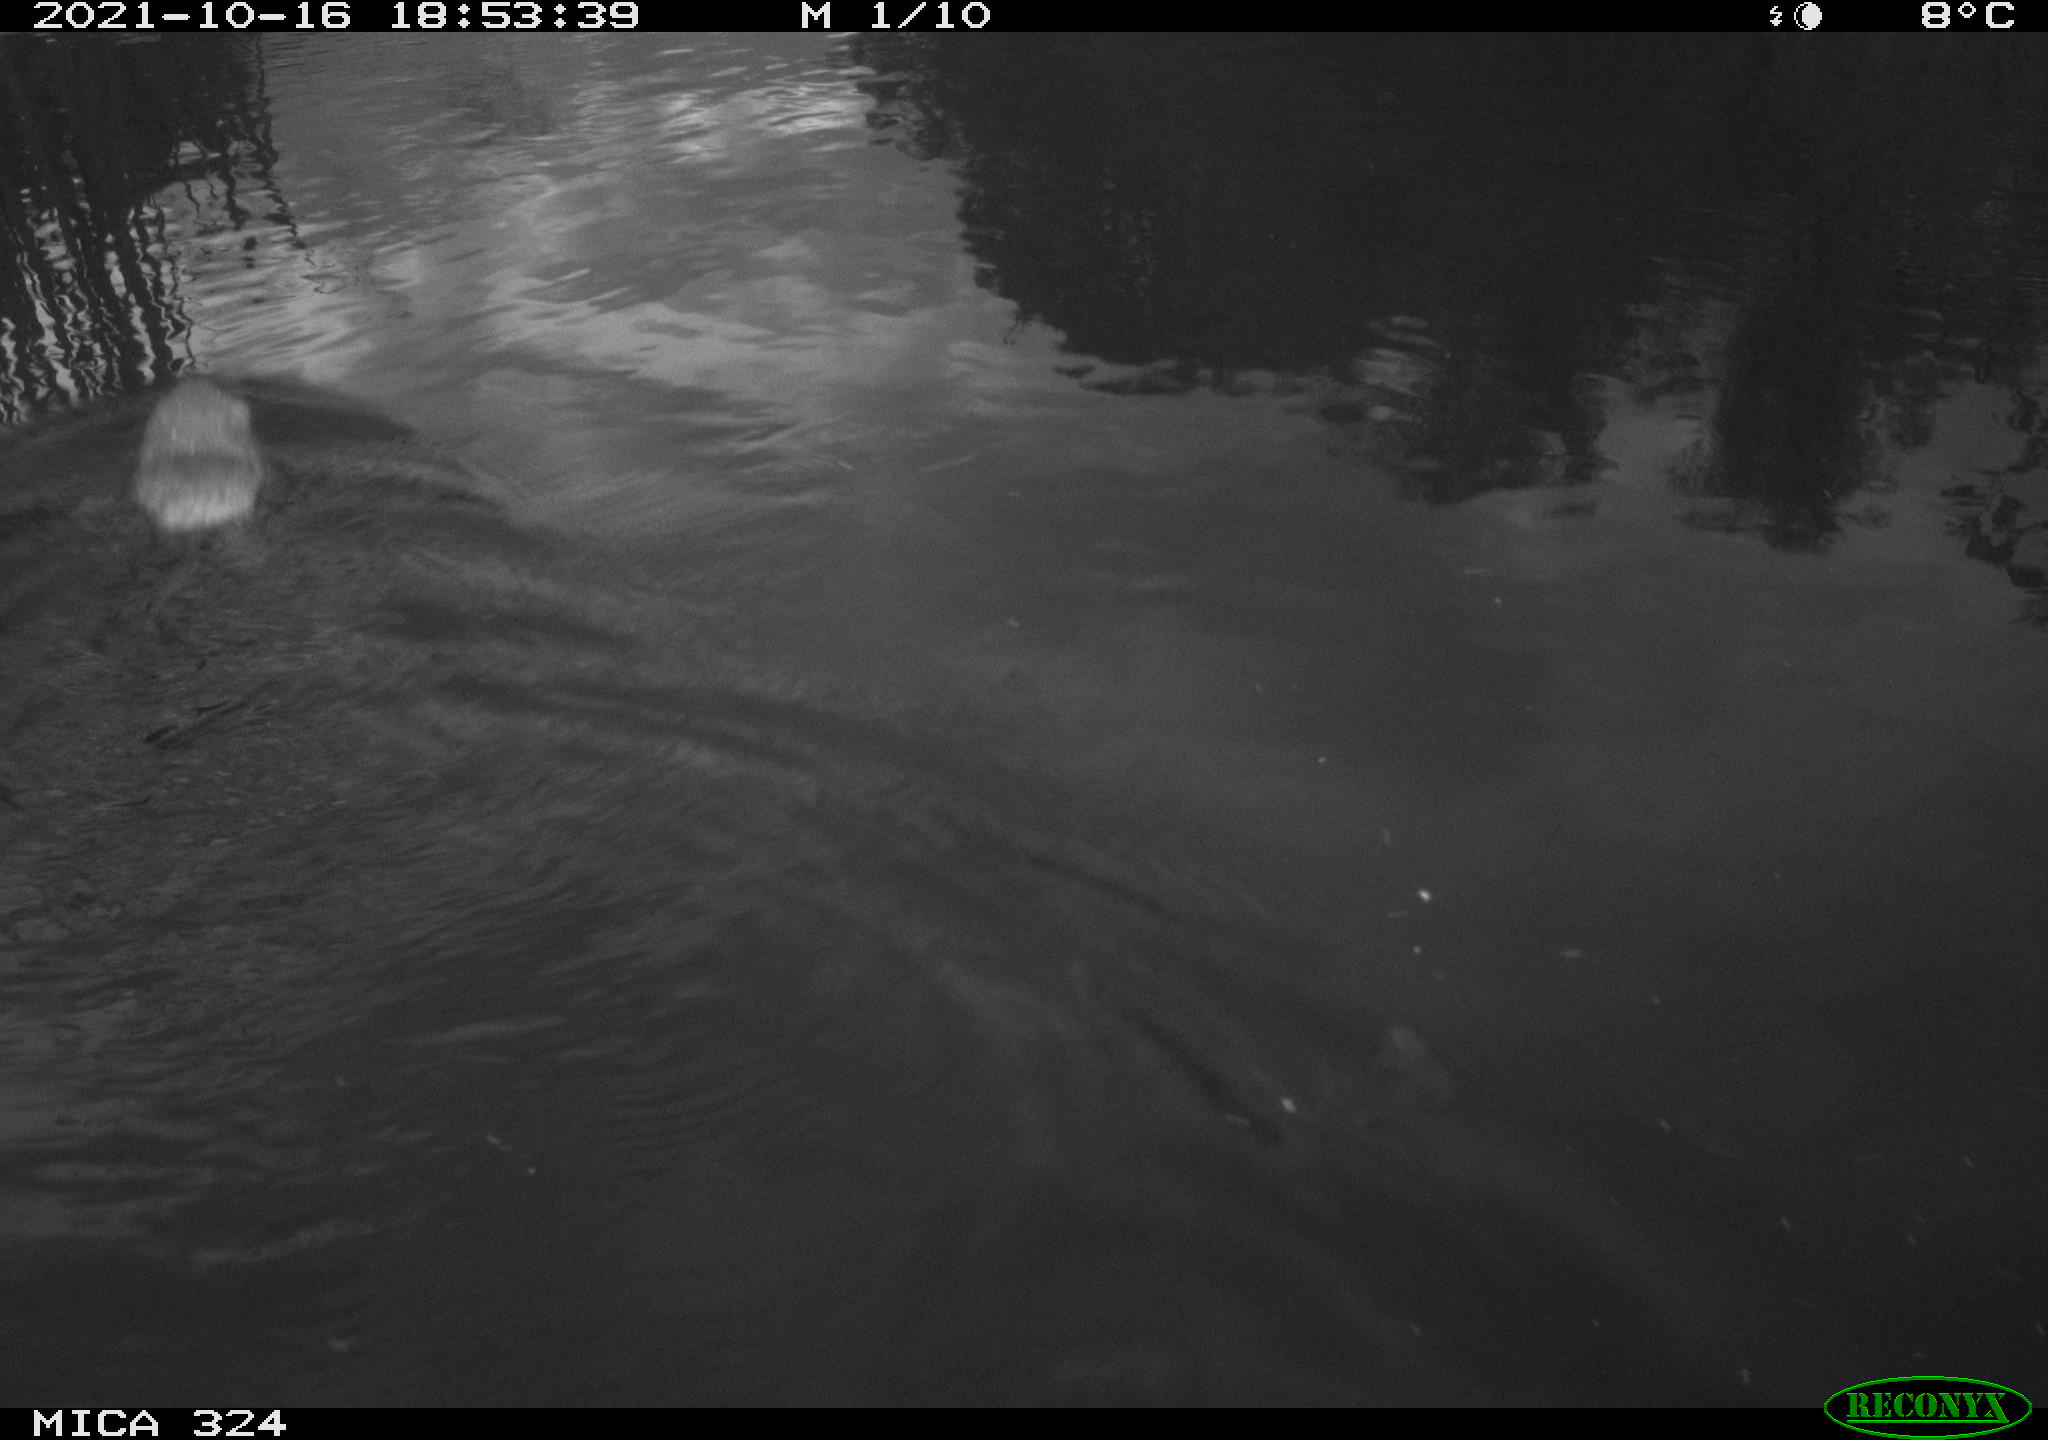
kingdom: Animalia
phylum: Chordata
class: Mammalia
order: Rodentia
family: Cricetidae
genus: Ondatra
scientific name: Ondatra zibethicus
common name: Muskrat
